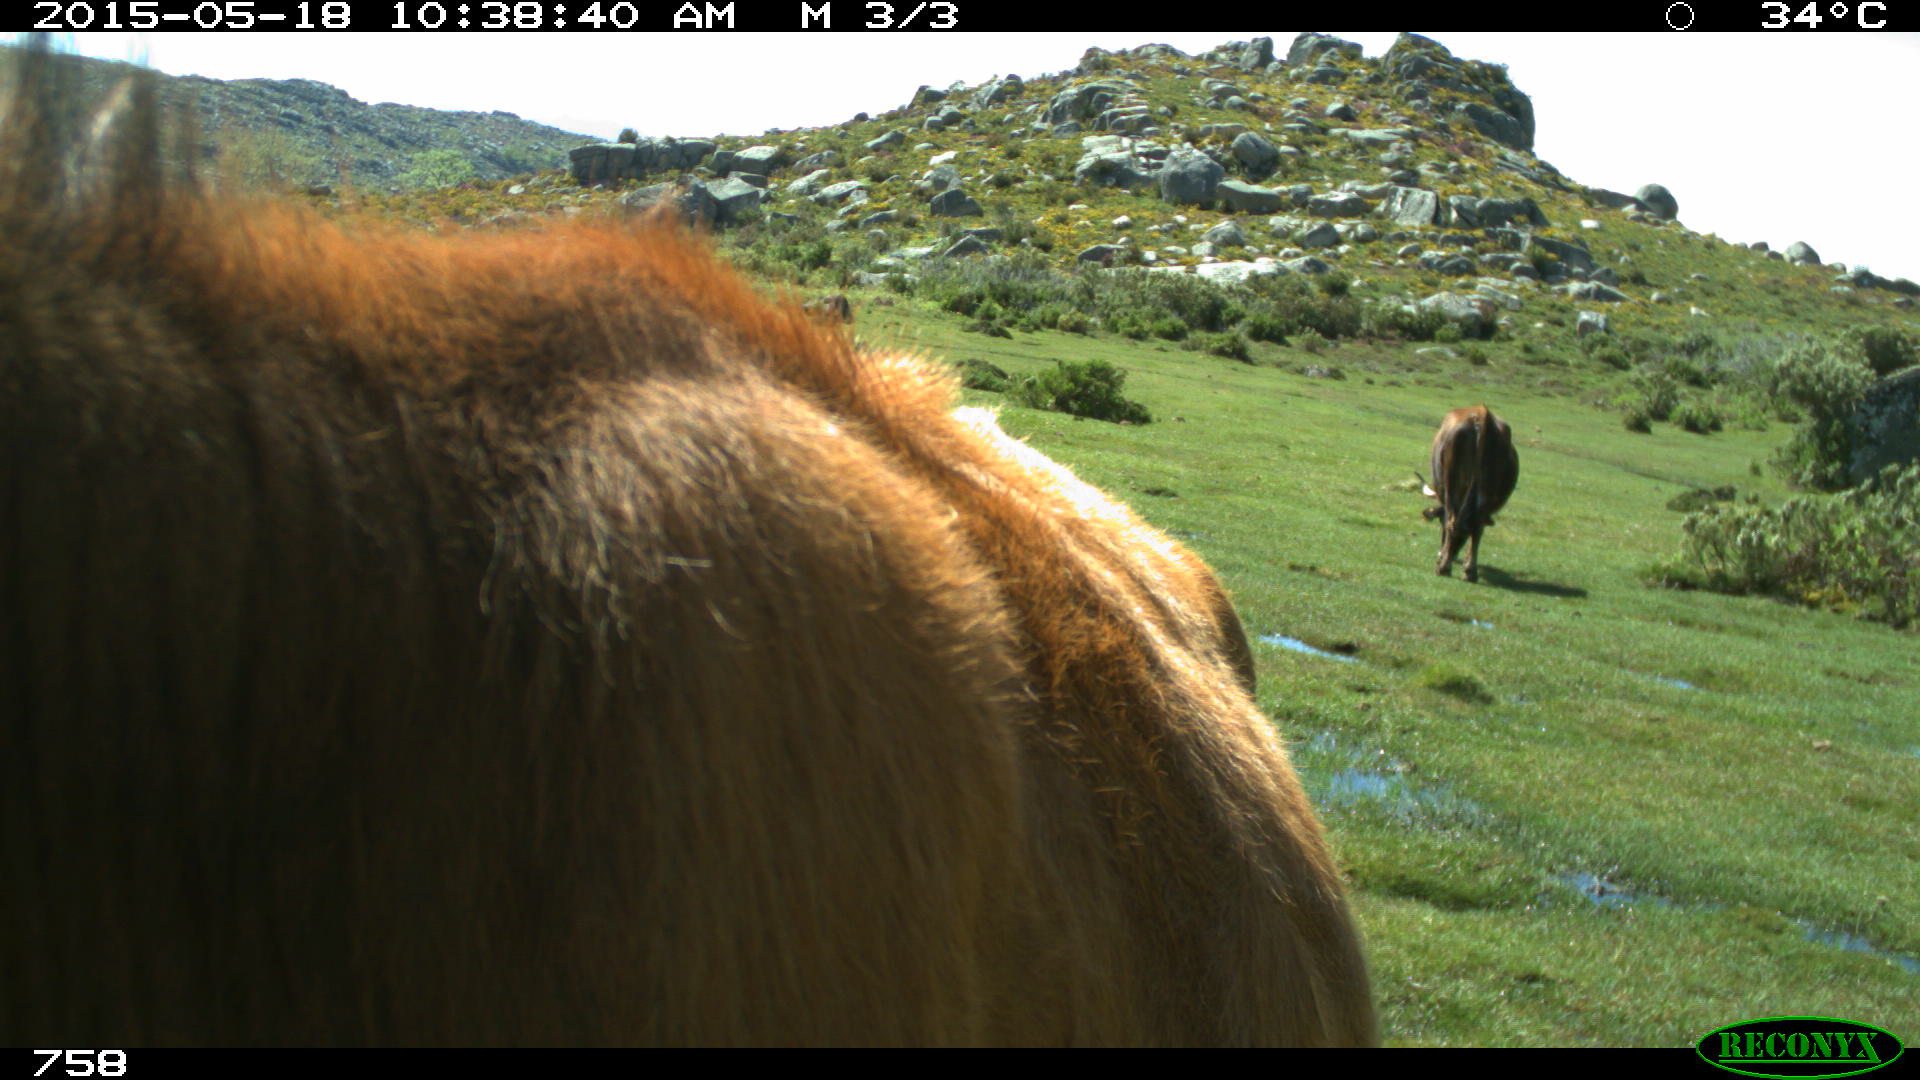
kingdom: Animalia
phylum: Chordata
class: Mammalia
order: Artiodactyla
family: Bovidae
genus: Bos
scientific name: Bos taurus
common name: Domesticated cattle
